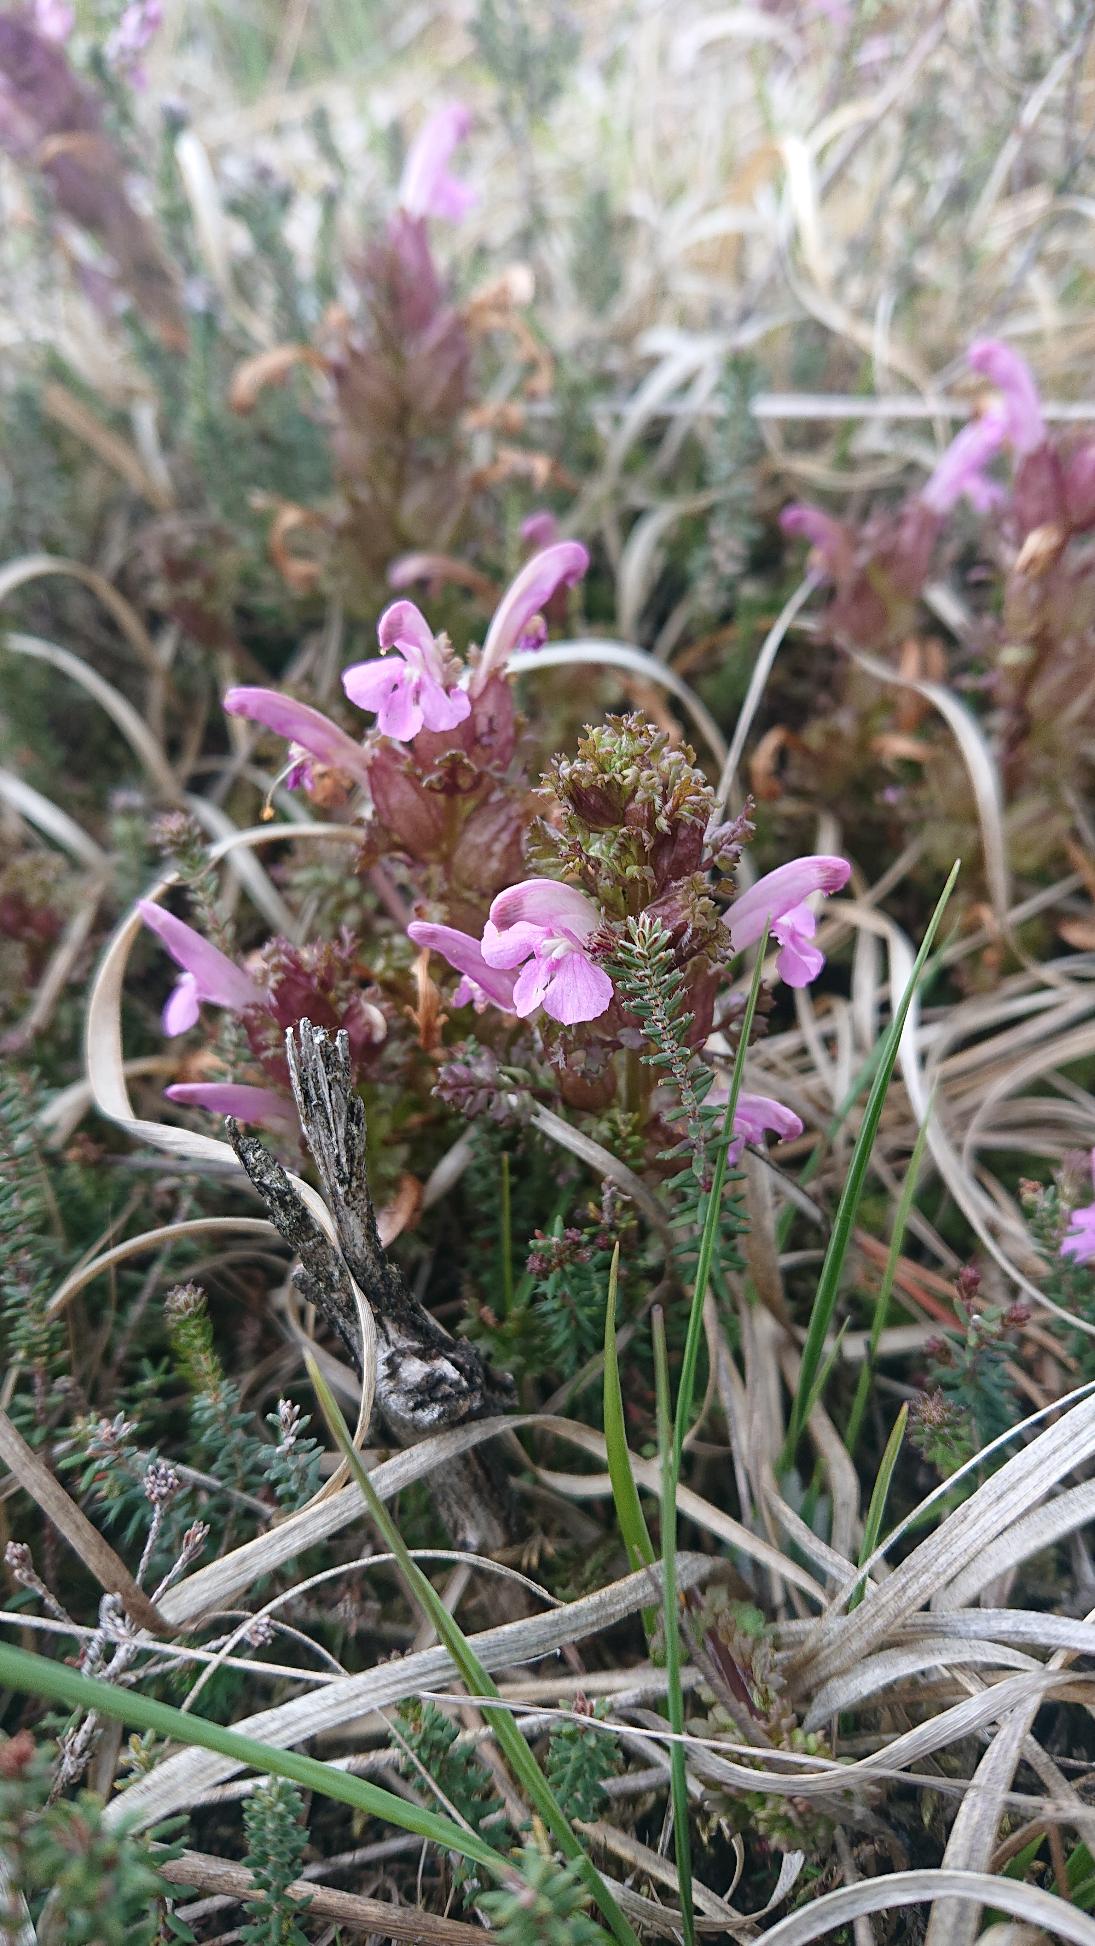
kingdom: Plantae
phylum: Tracheophyta
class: Magnoliopsida
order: Lamiales
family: Orobanchaceae
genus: Pedicularis
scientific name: Pedicularis sylvatica
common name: Mose-troldurt
